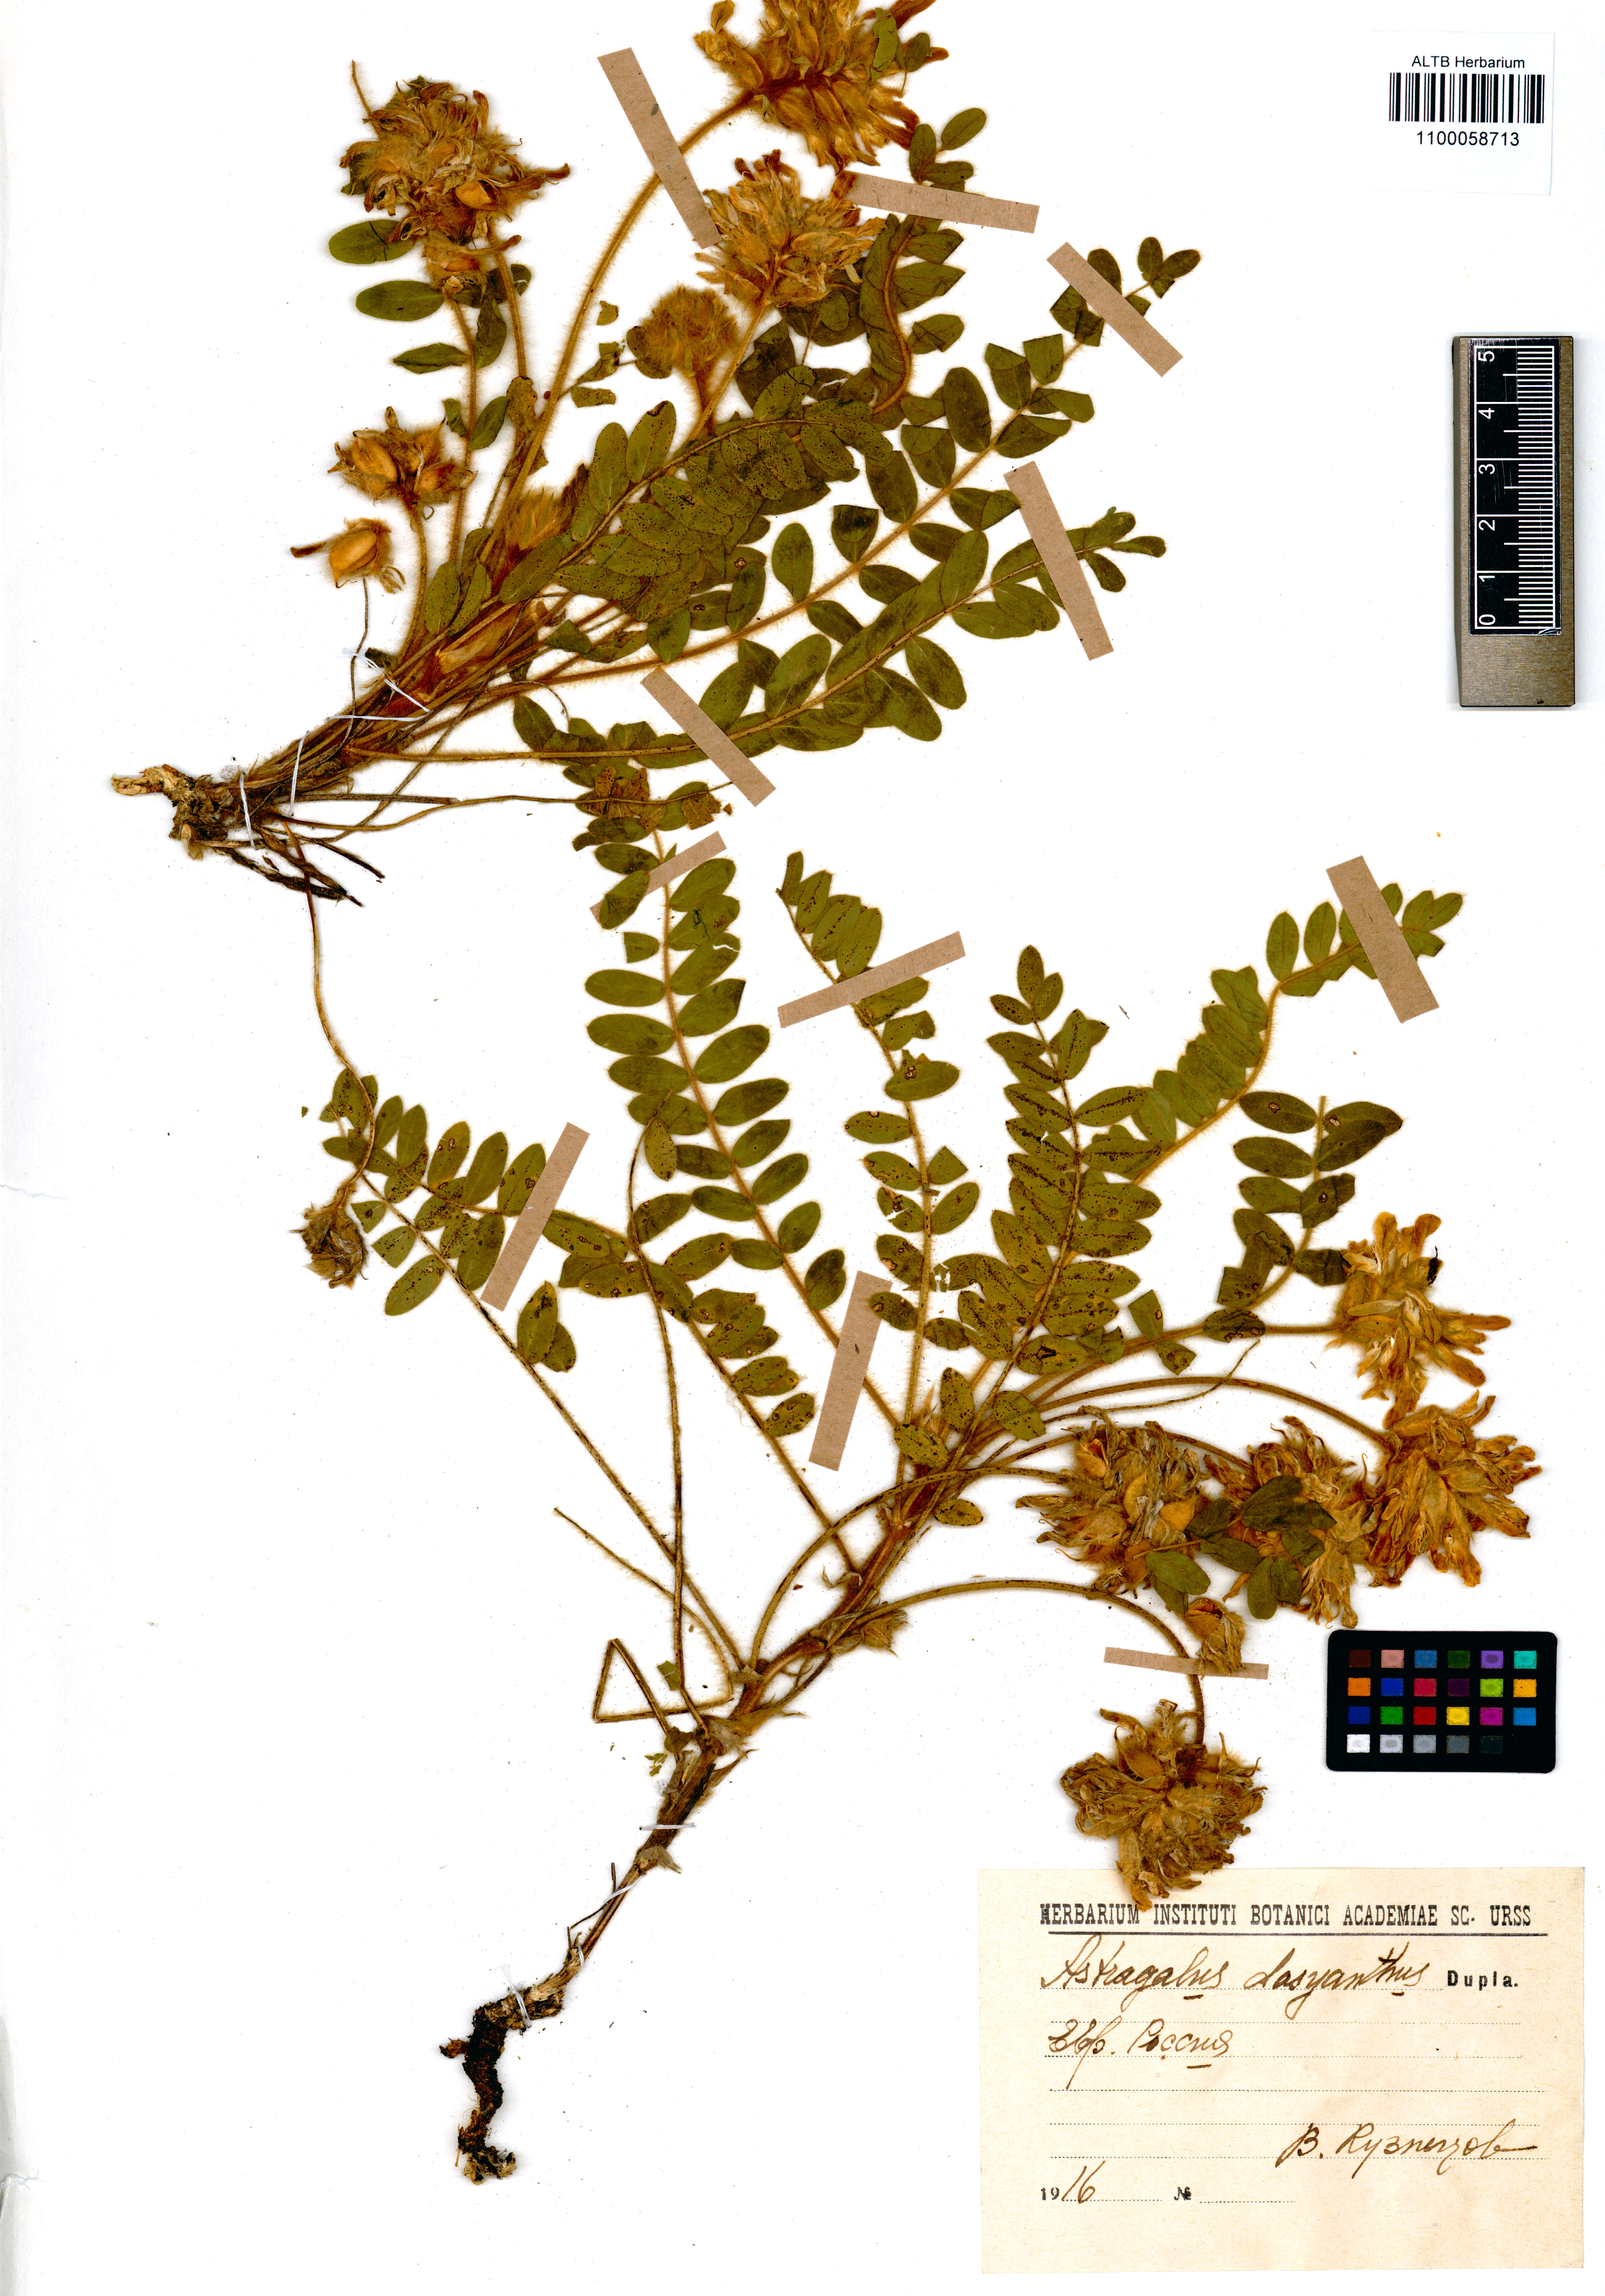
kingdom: Plantae
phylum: Tracheophyta
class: Magnoliopsida
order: Fabales
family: Fabaceae
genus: Astragalus
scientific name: Astragalus dasyanthus
